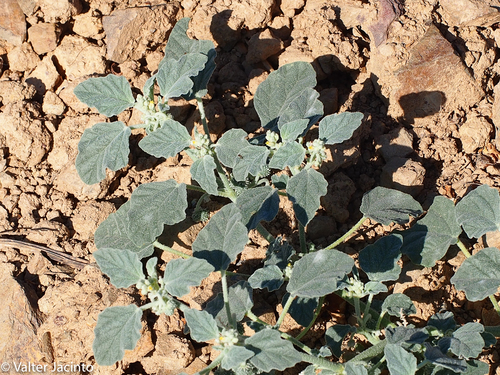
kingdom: Plantae
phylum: Tracheophyta
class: Magnoliopsida
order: Malpighiales
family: Euphorbiaceae
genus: Chrozophora
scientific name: Chrozophora tinctoria
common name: Dyer's litmus
